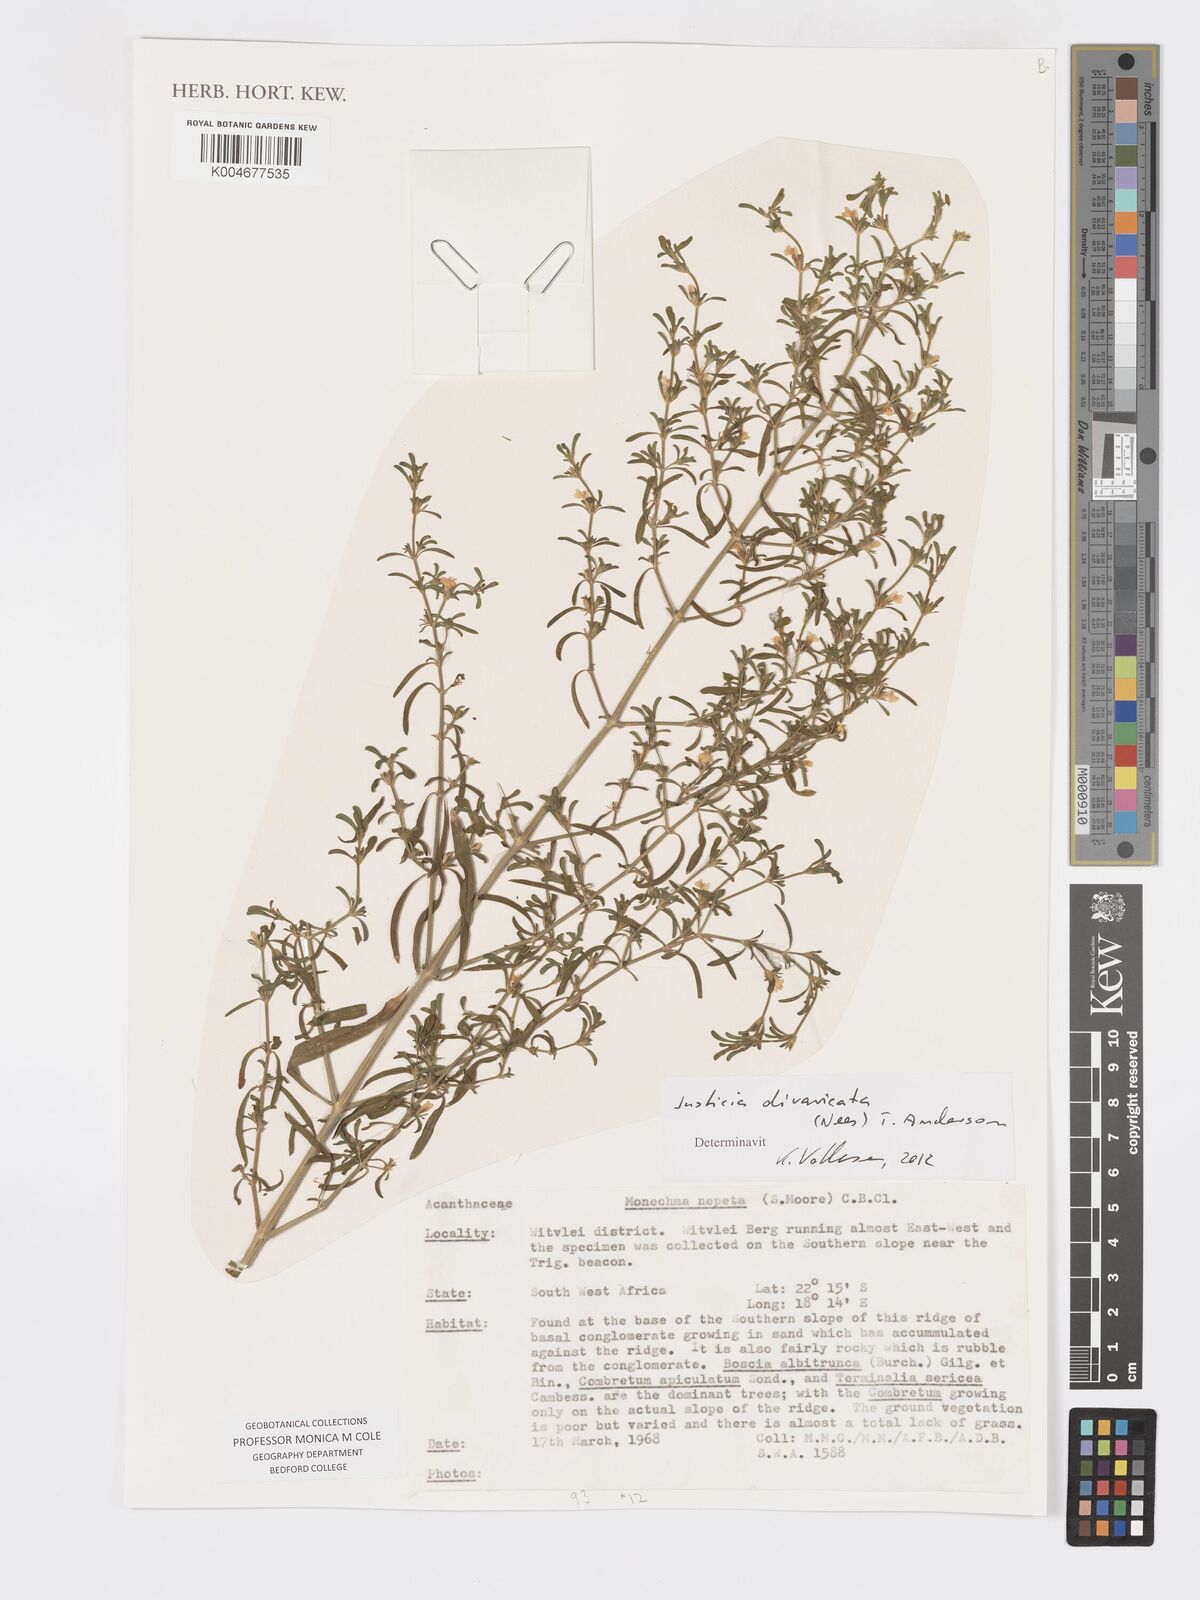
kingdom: Plantae
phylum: Tracheophyta
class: Magnoliopsida
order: Lamiales
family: Acanthaceae
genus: Pogonospermum
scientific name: Pogonospermum
